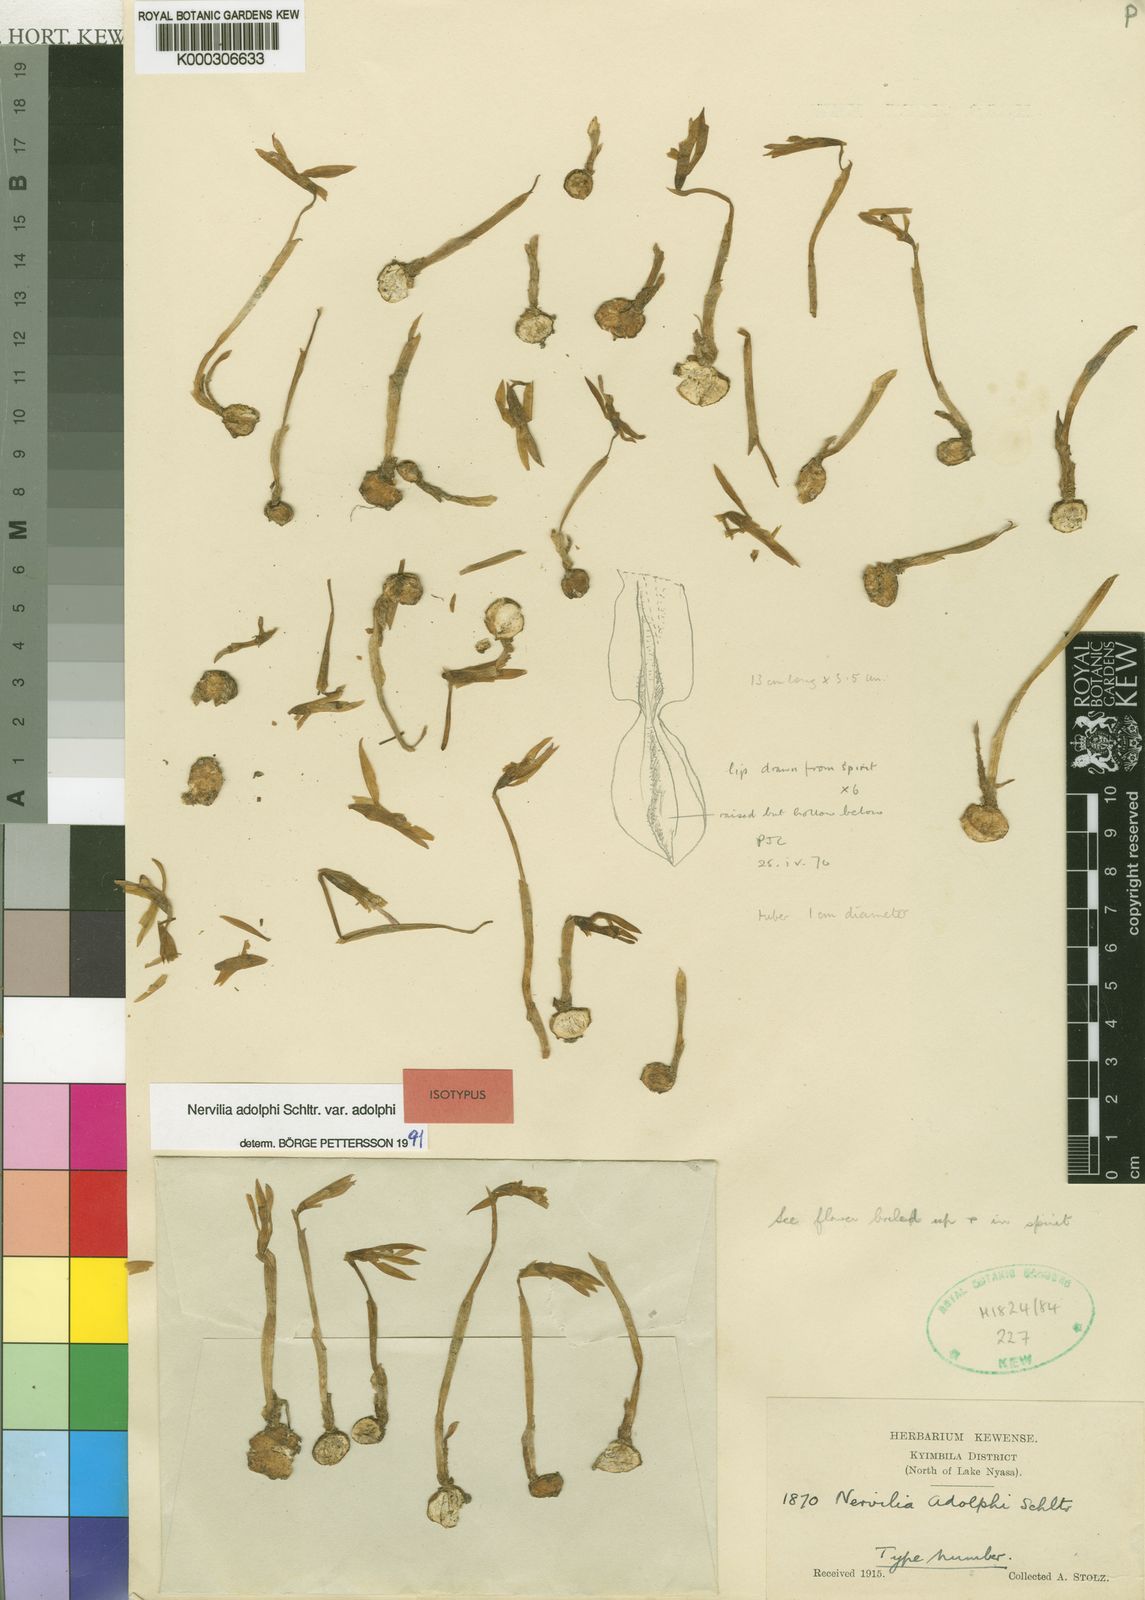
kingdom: Plantae
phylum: Tracheophyta
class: Liliopsida
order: Asparagales
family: Orchidaceae
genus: Nervilia
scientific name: Nervilia adolphi
